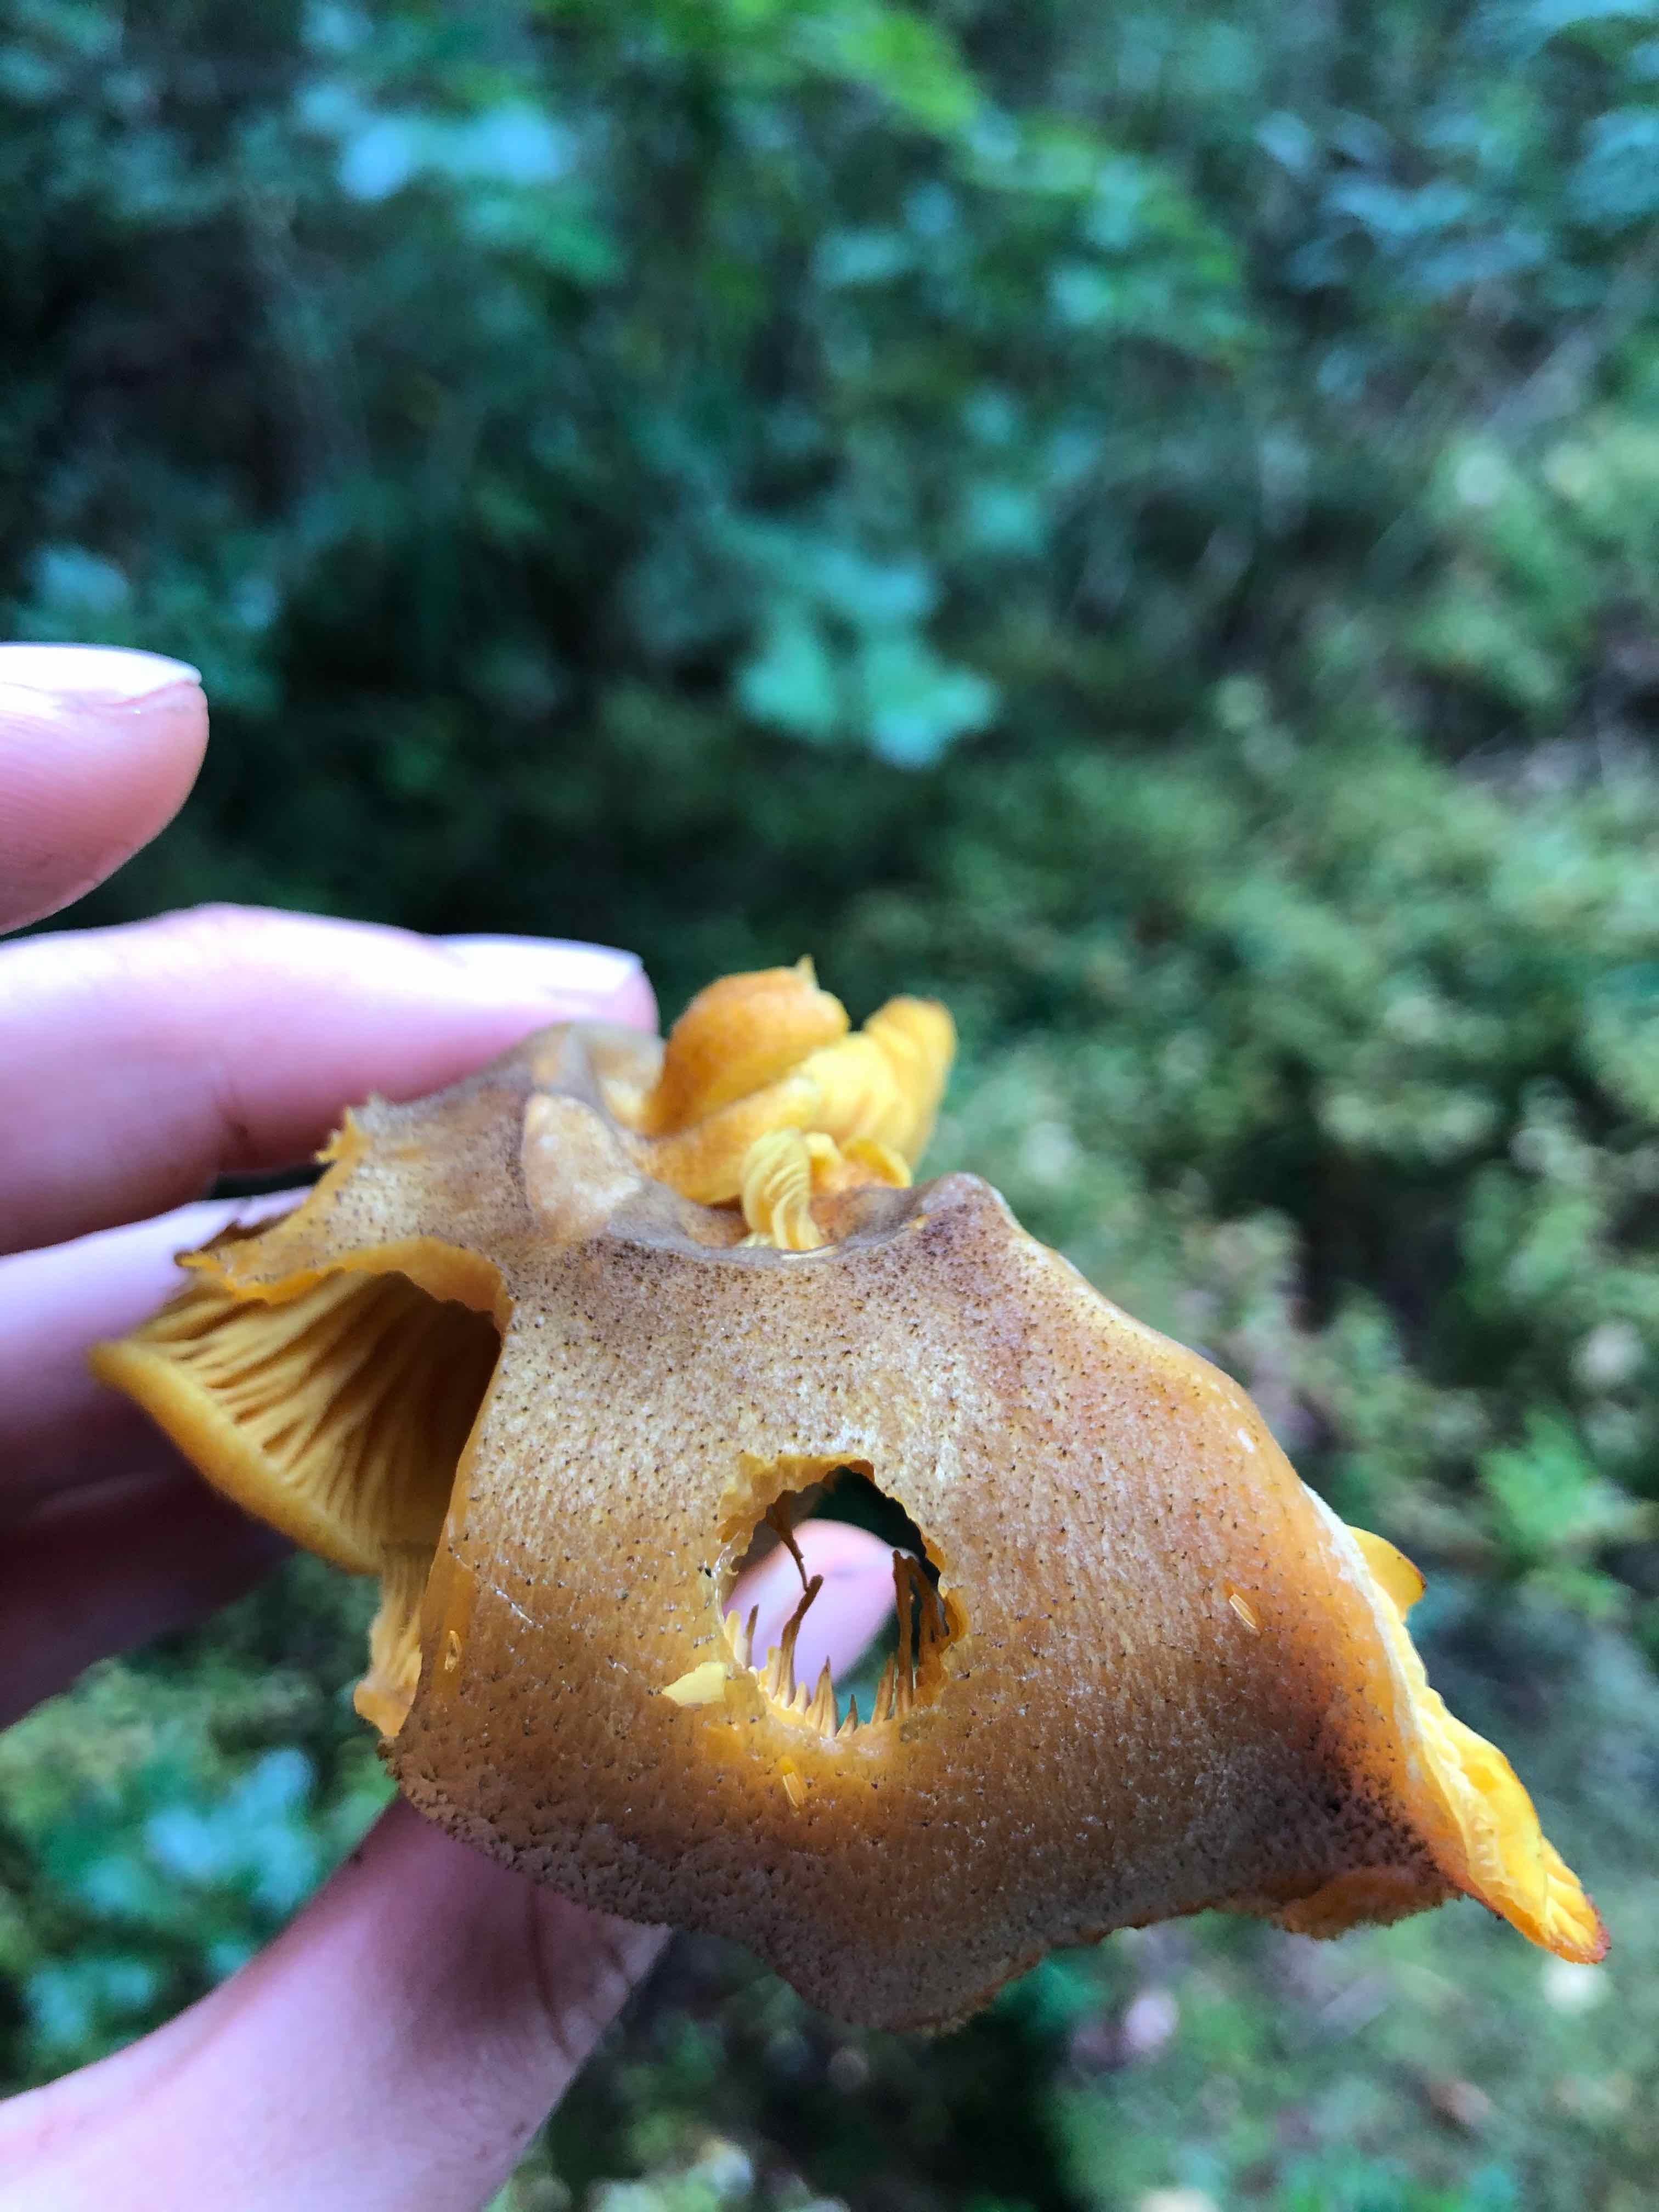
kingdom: Fungi
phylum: Basidiomycota
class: Agaricomycetes
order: Agaricales
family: Tricholomataceae
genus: Tricholomopsis
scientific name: Tricholomopsis decora
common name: sortskællet væbnerhat
